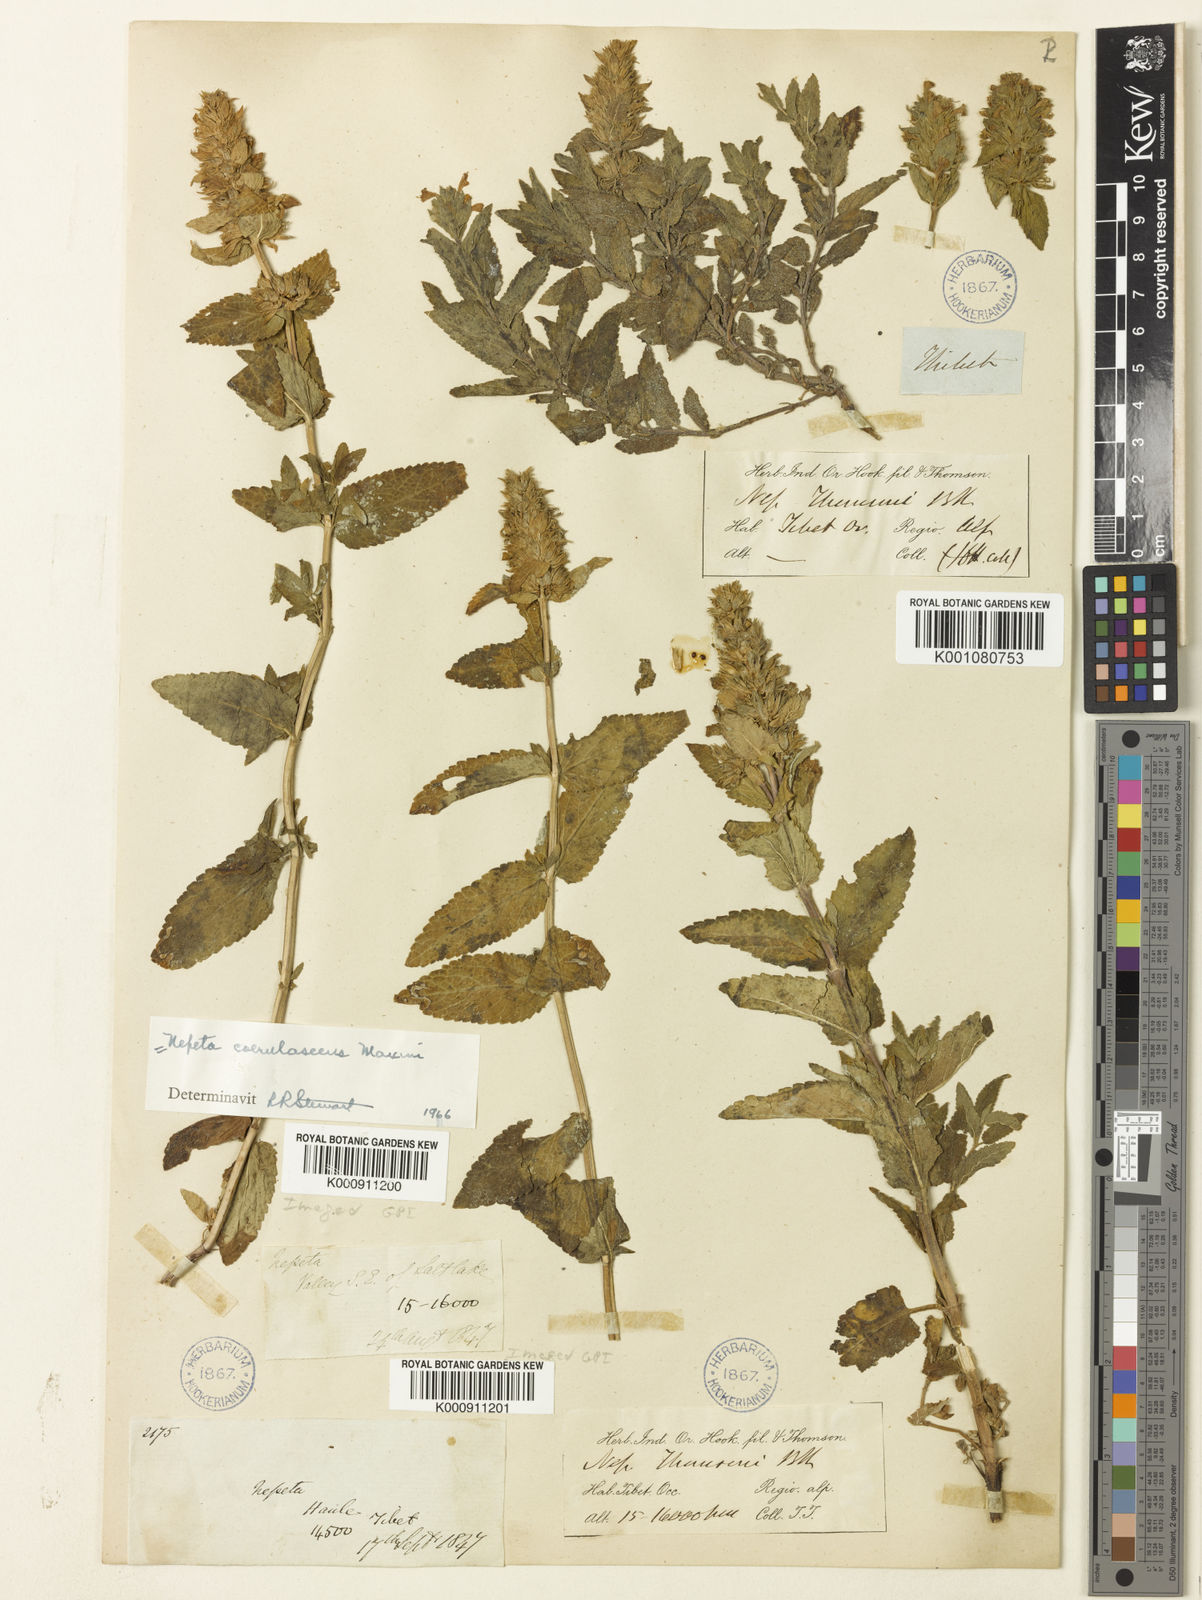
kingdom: Plantae
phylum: Tracheophyta
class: Magnoliopsida
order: Lamiales
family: Lamiaceae
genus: Nepeta
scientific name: Nepeta coerulescens
